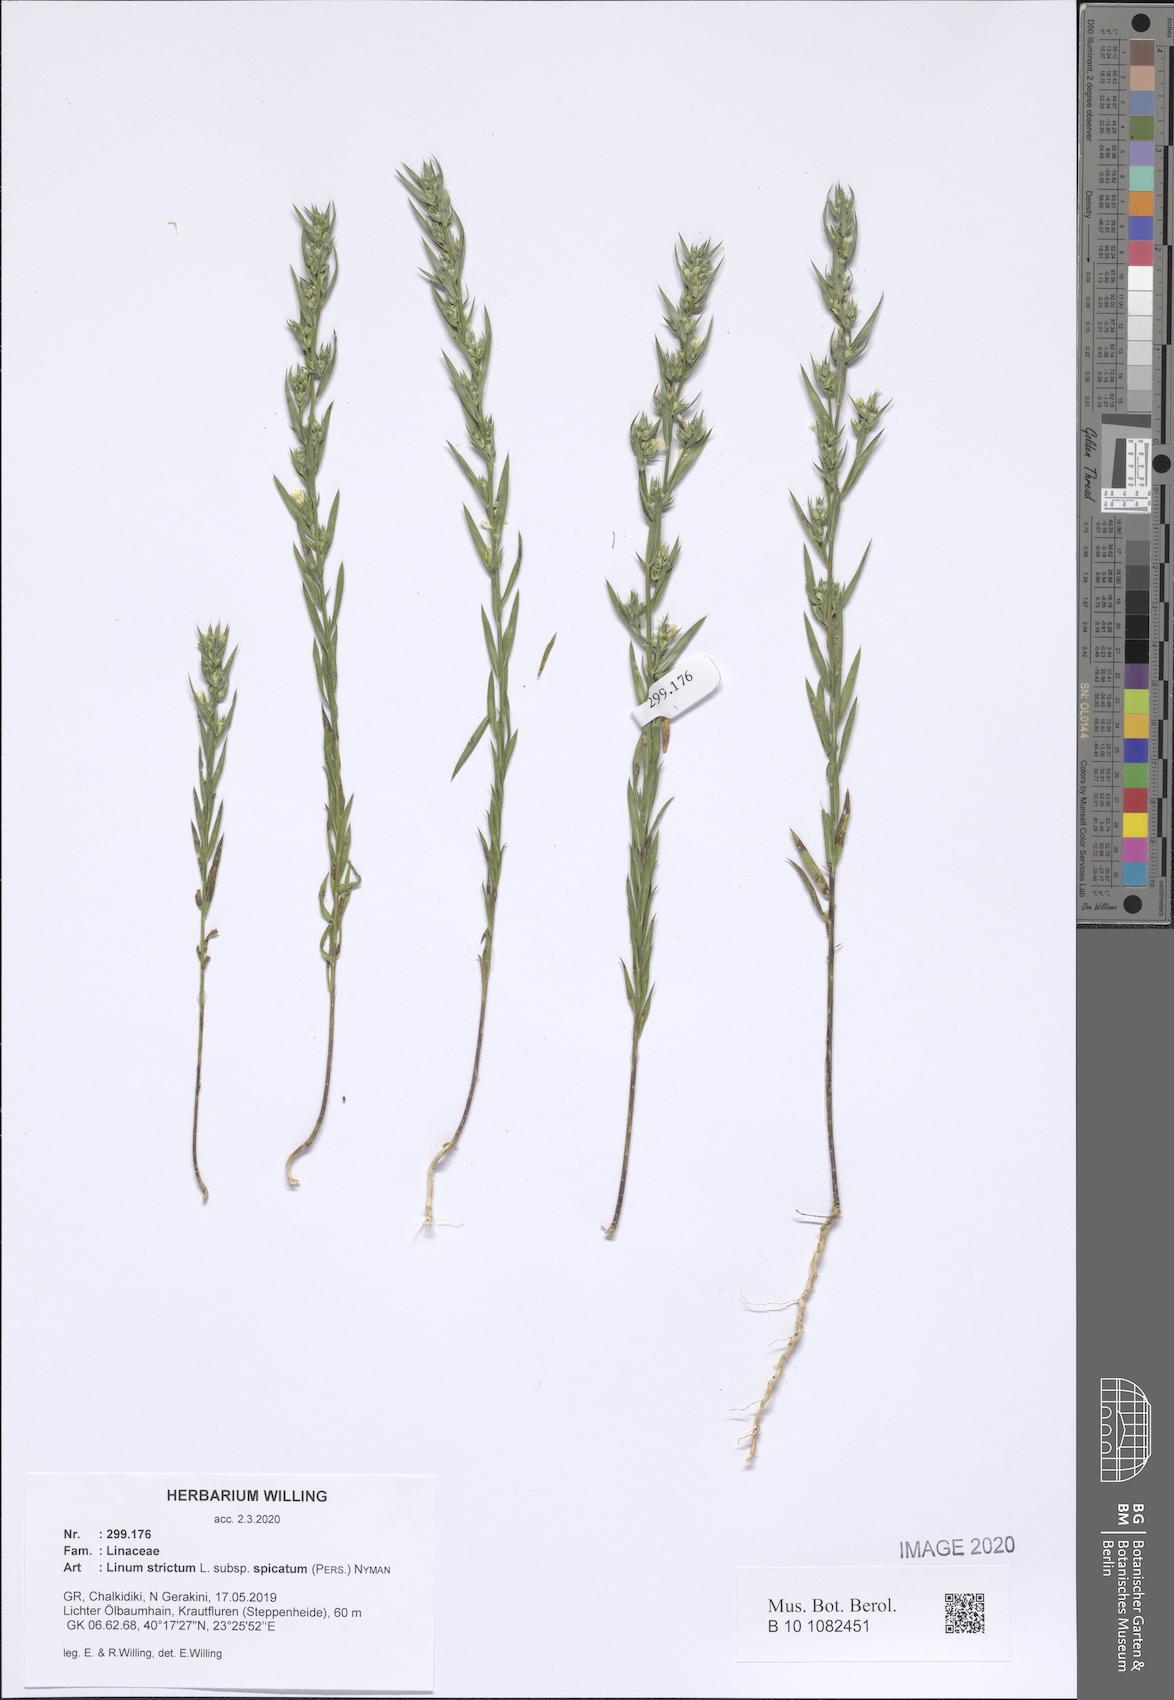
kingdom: Plantae
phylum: Tracheophyta
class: Magnoliopsida
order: Malpighiales
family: Linaceae
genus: Linum
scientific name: Linum strictum
